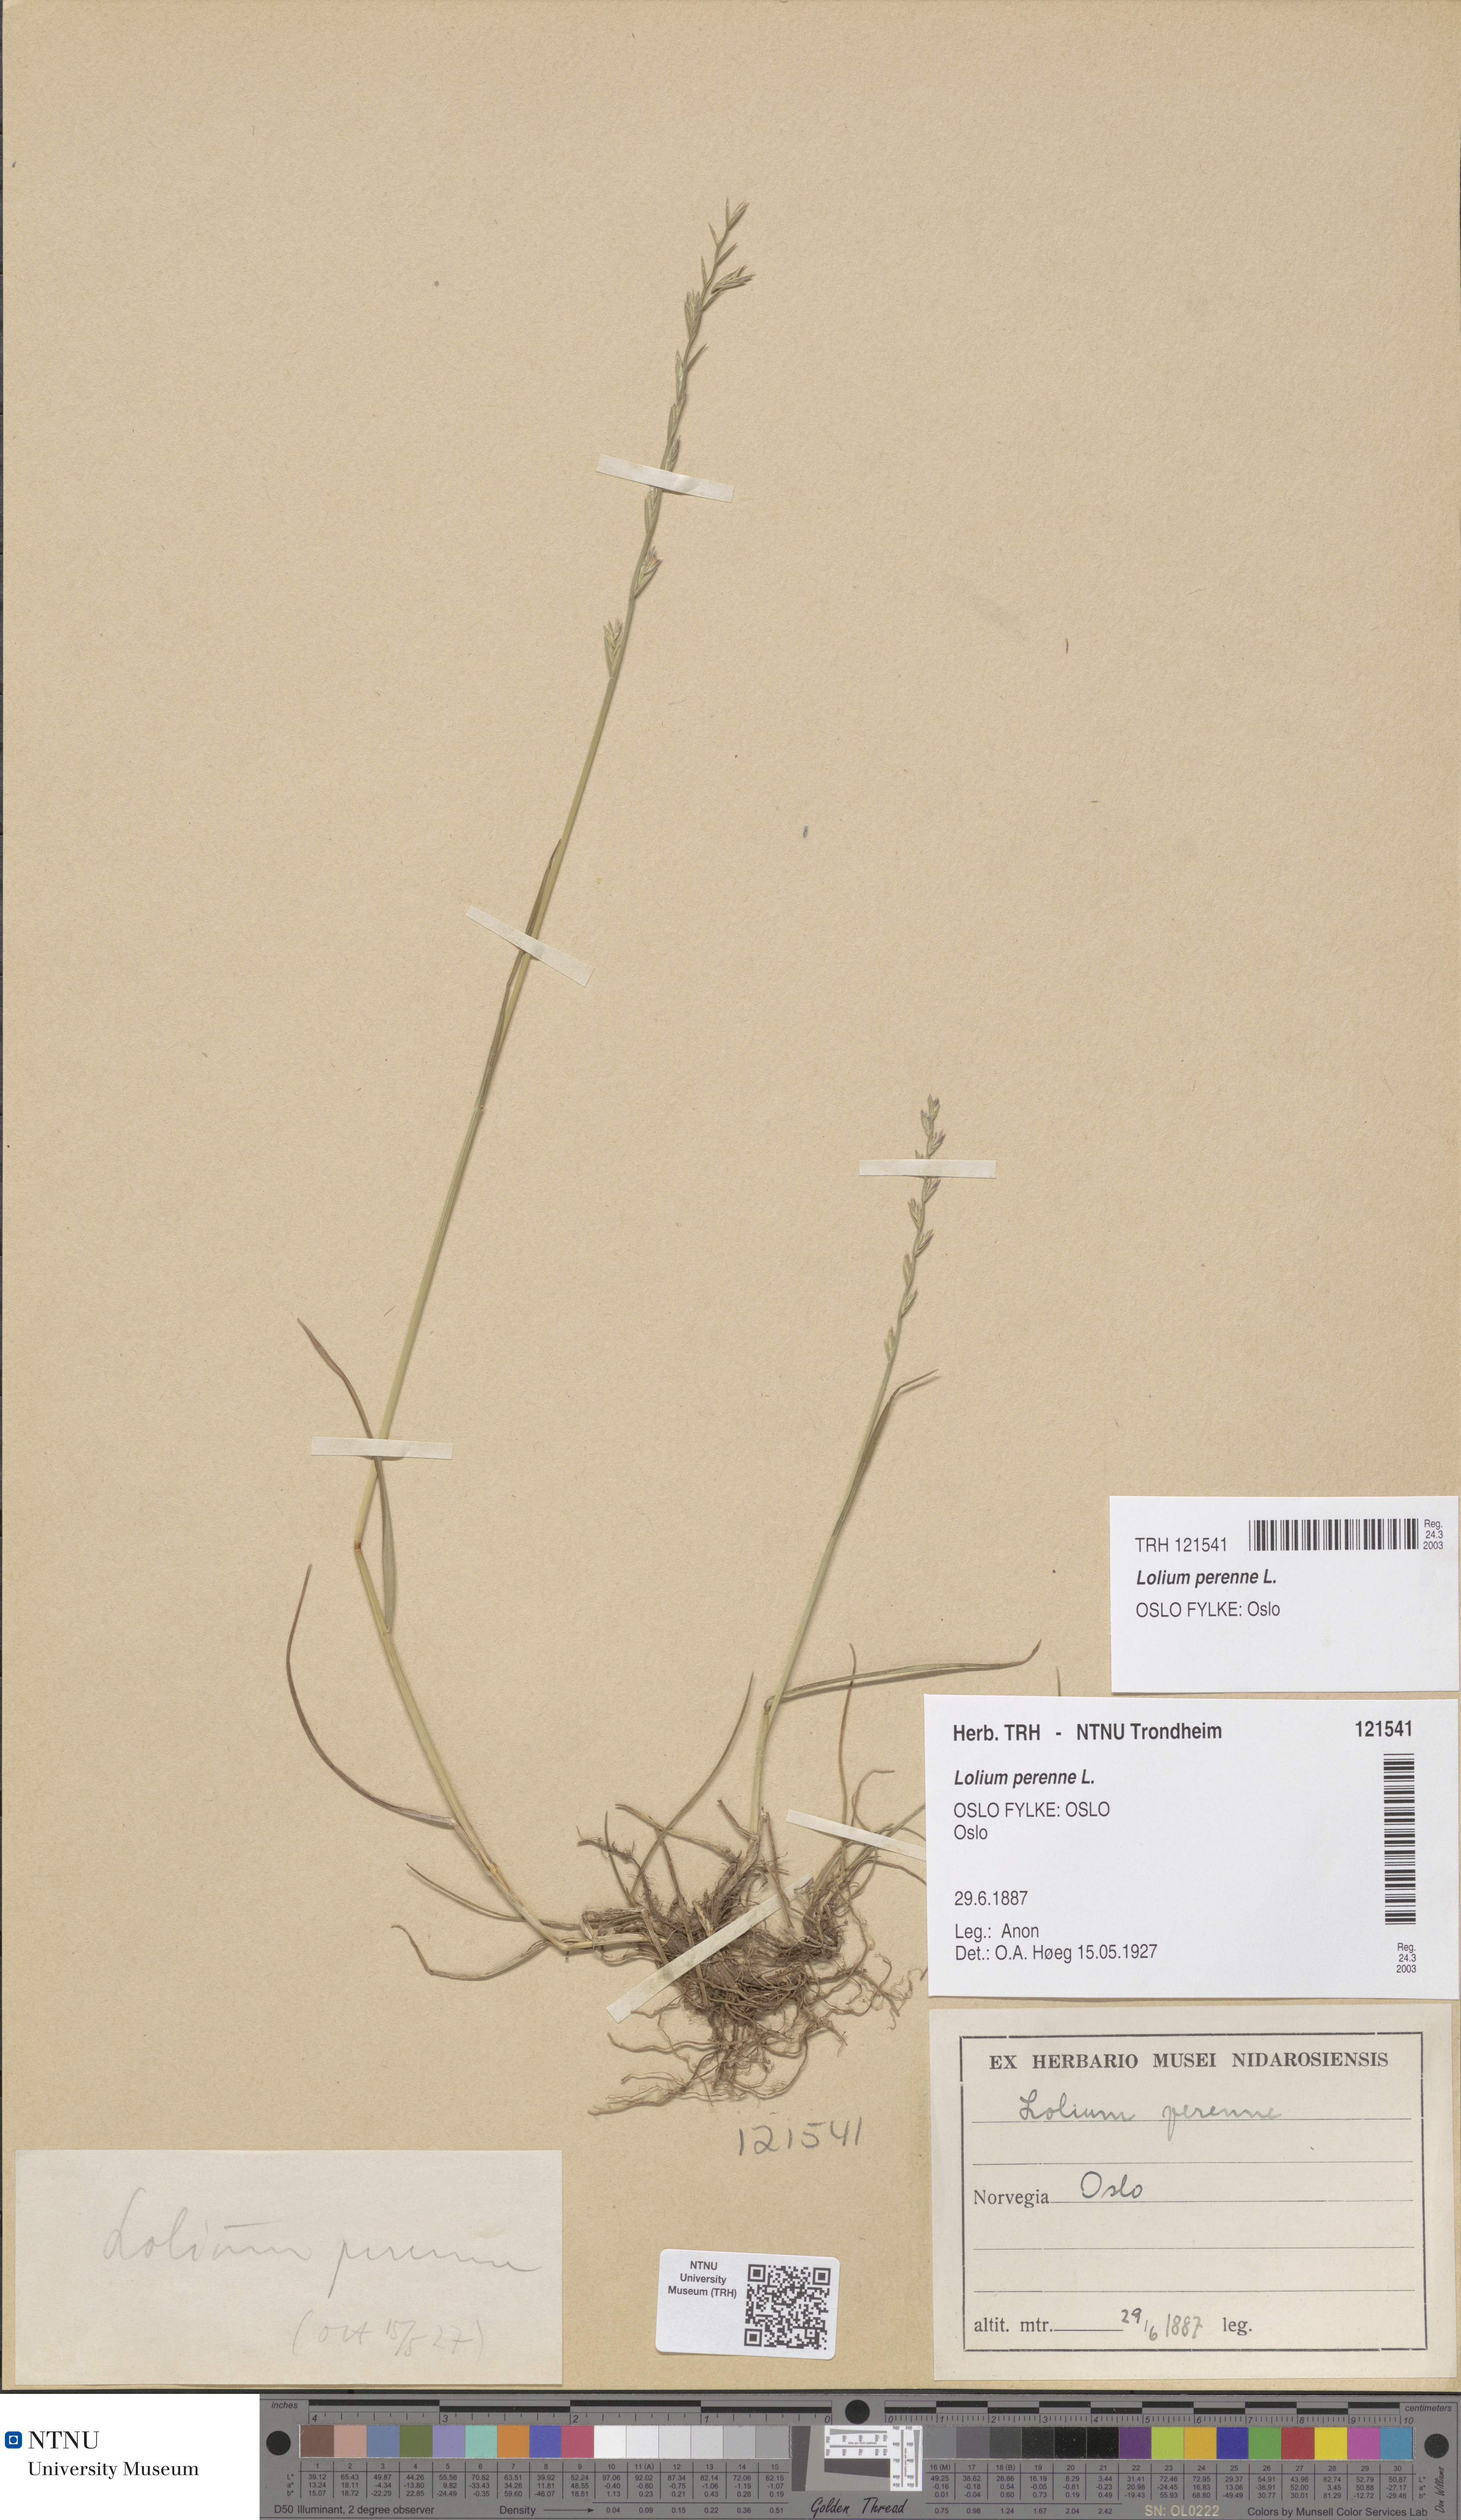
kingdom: Plantae
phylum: Tracheophyta
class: Liliopsida
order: Poales
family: Poaceae
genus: Lolium
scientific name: Lolium perenne
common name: Perennial ryegrass
